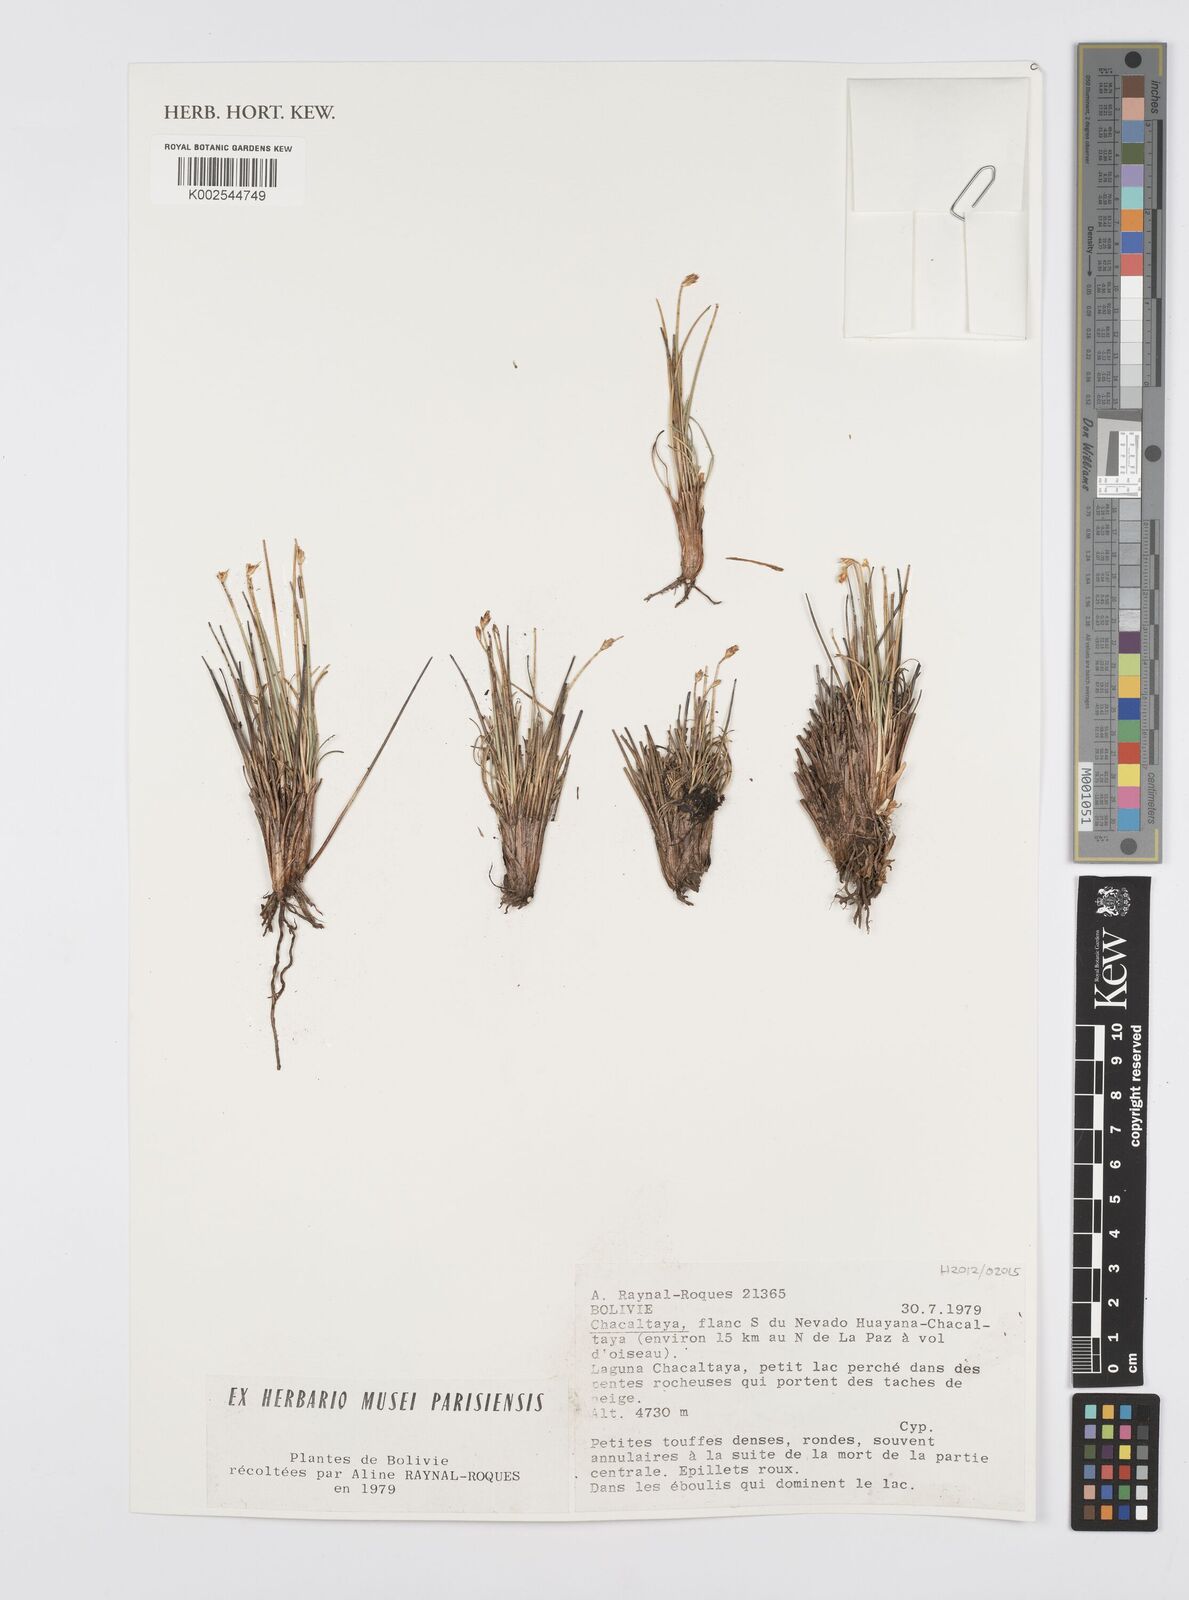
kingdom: Plantae
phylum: Tracheophyta
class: Liliopsida
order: Poales
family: Cyperaceae
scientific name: Cyperaceae
